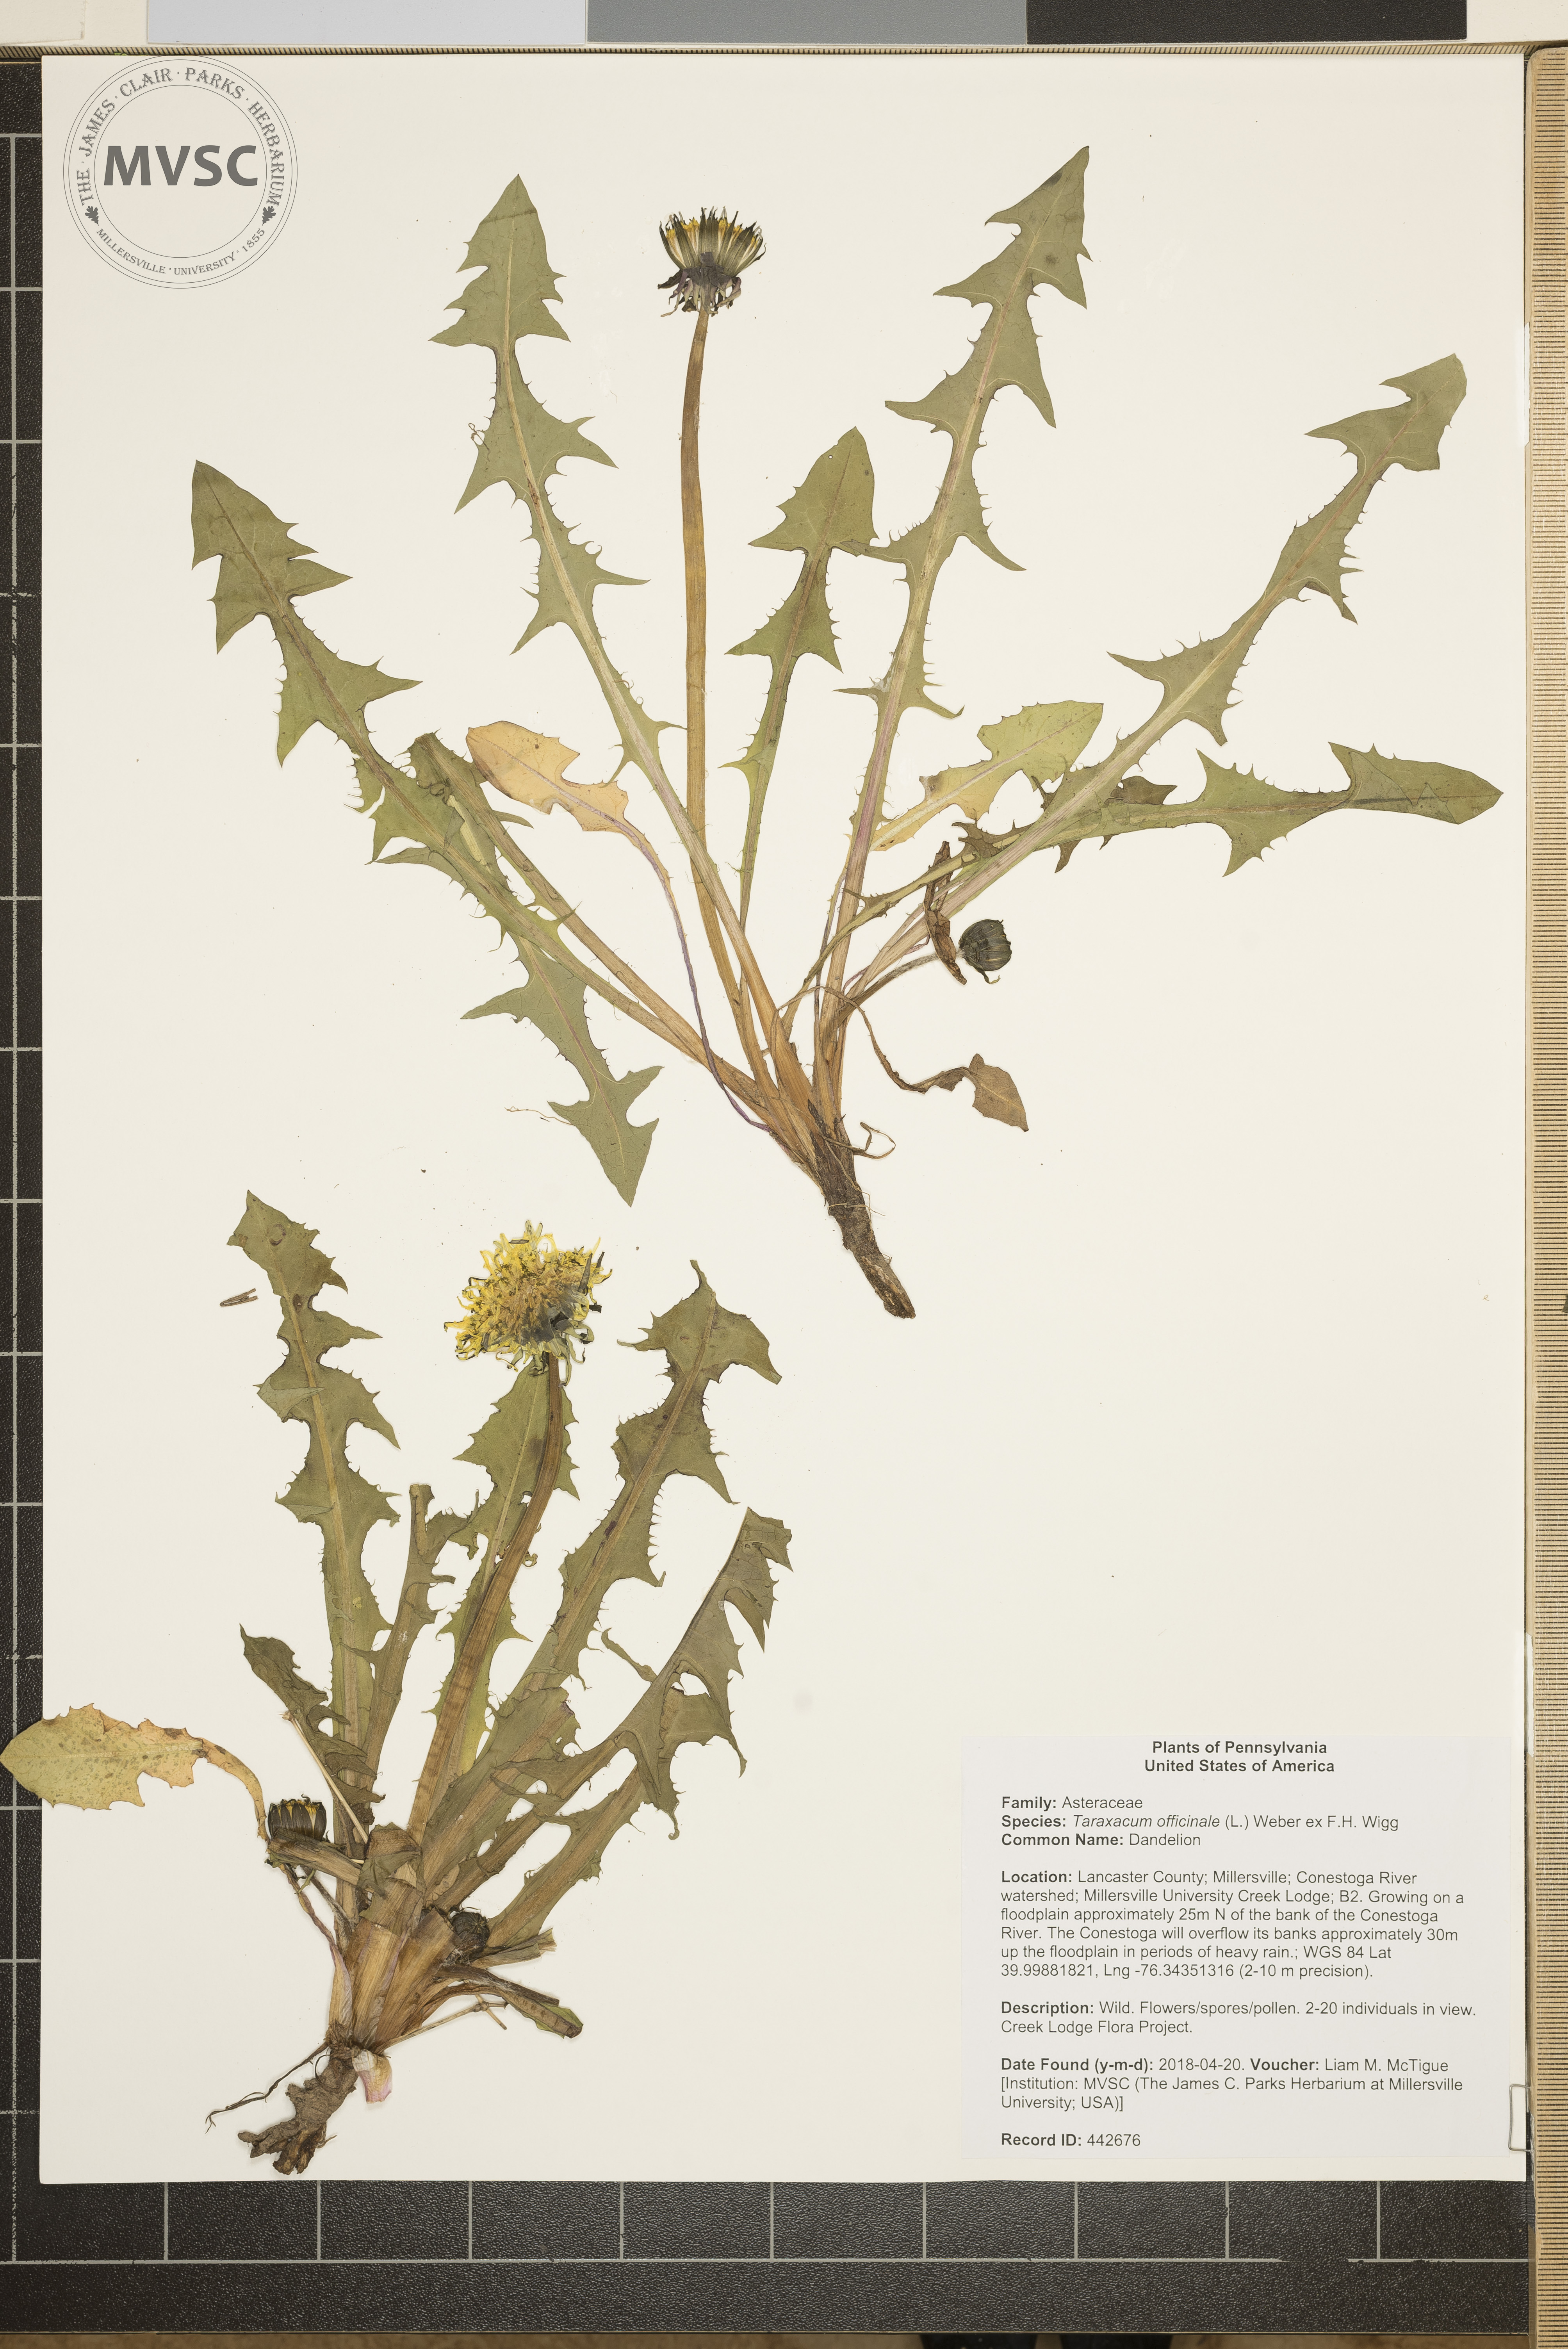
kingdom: Plantae
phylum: Tracheophyta
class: Magnoliopsida
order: Asterales
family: Asteraceae
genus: Taraxacum
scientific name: Taraxacum officinale
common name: Dandelion
